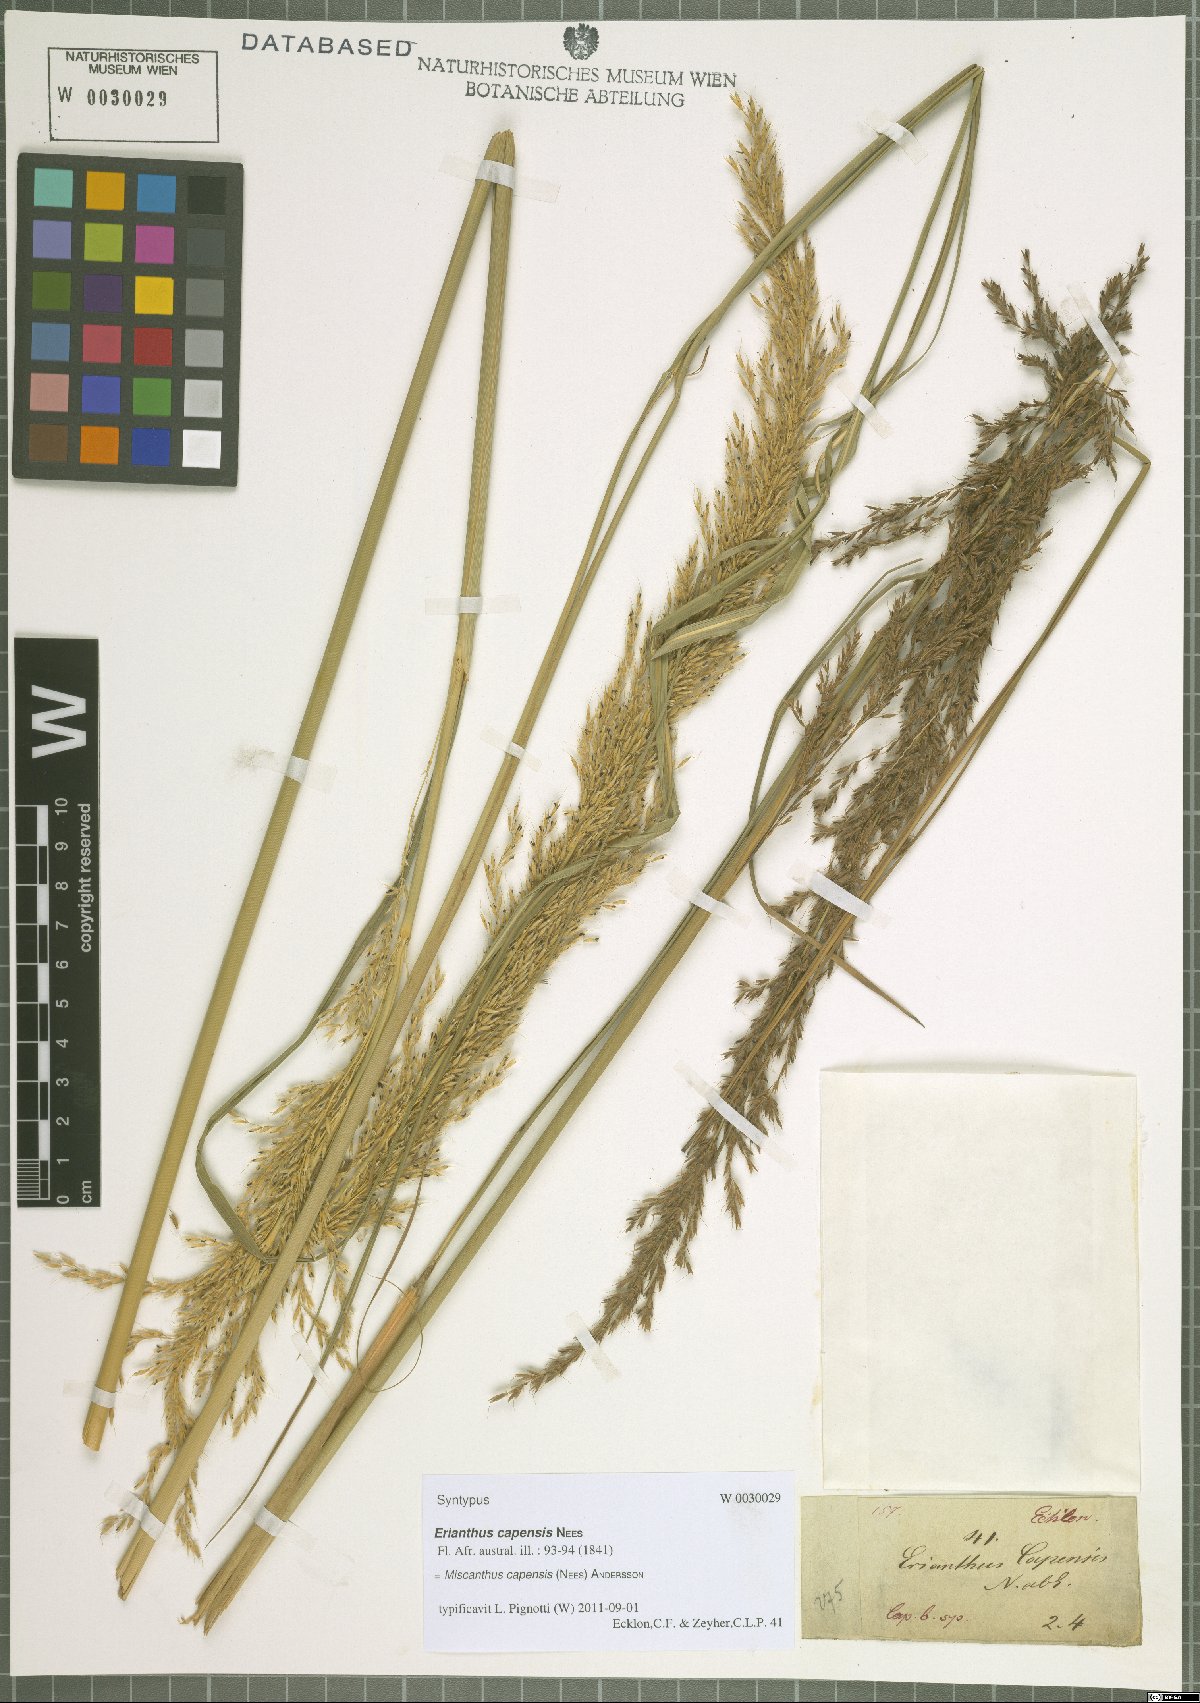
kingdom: Plantae
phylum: Tracheophyta
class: Liliopsida
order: Poales
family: Poaceae
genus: Miscanthus
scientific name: Miscanthus ecklonii
